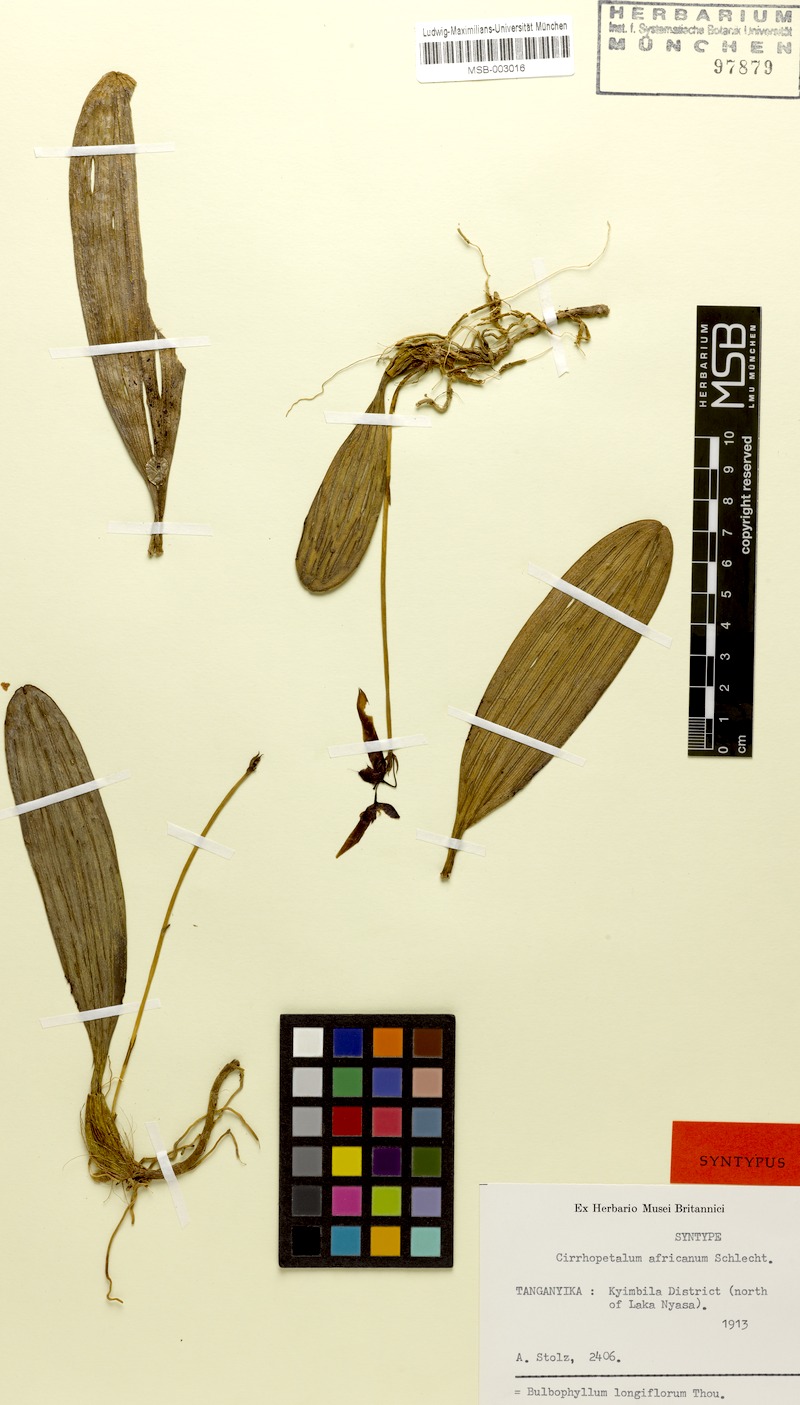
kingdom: Plantae
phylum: Tracheophyta
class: Liliopsida
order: Asparagales
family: Orchidaceae
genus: Bulbophyllum
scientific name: Bulbophyllum longiflorum
